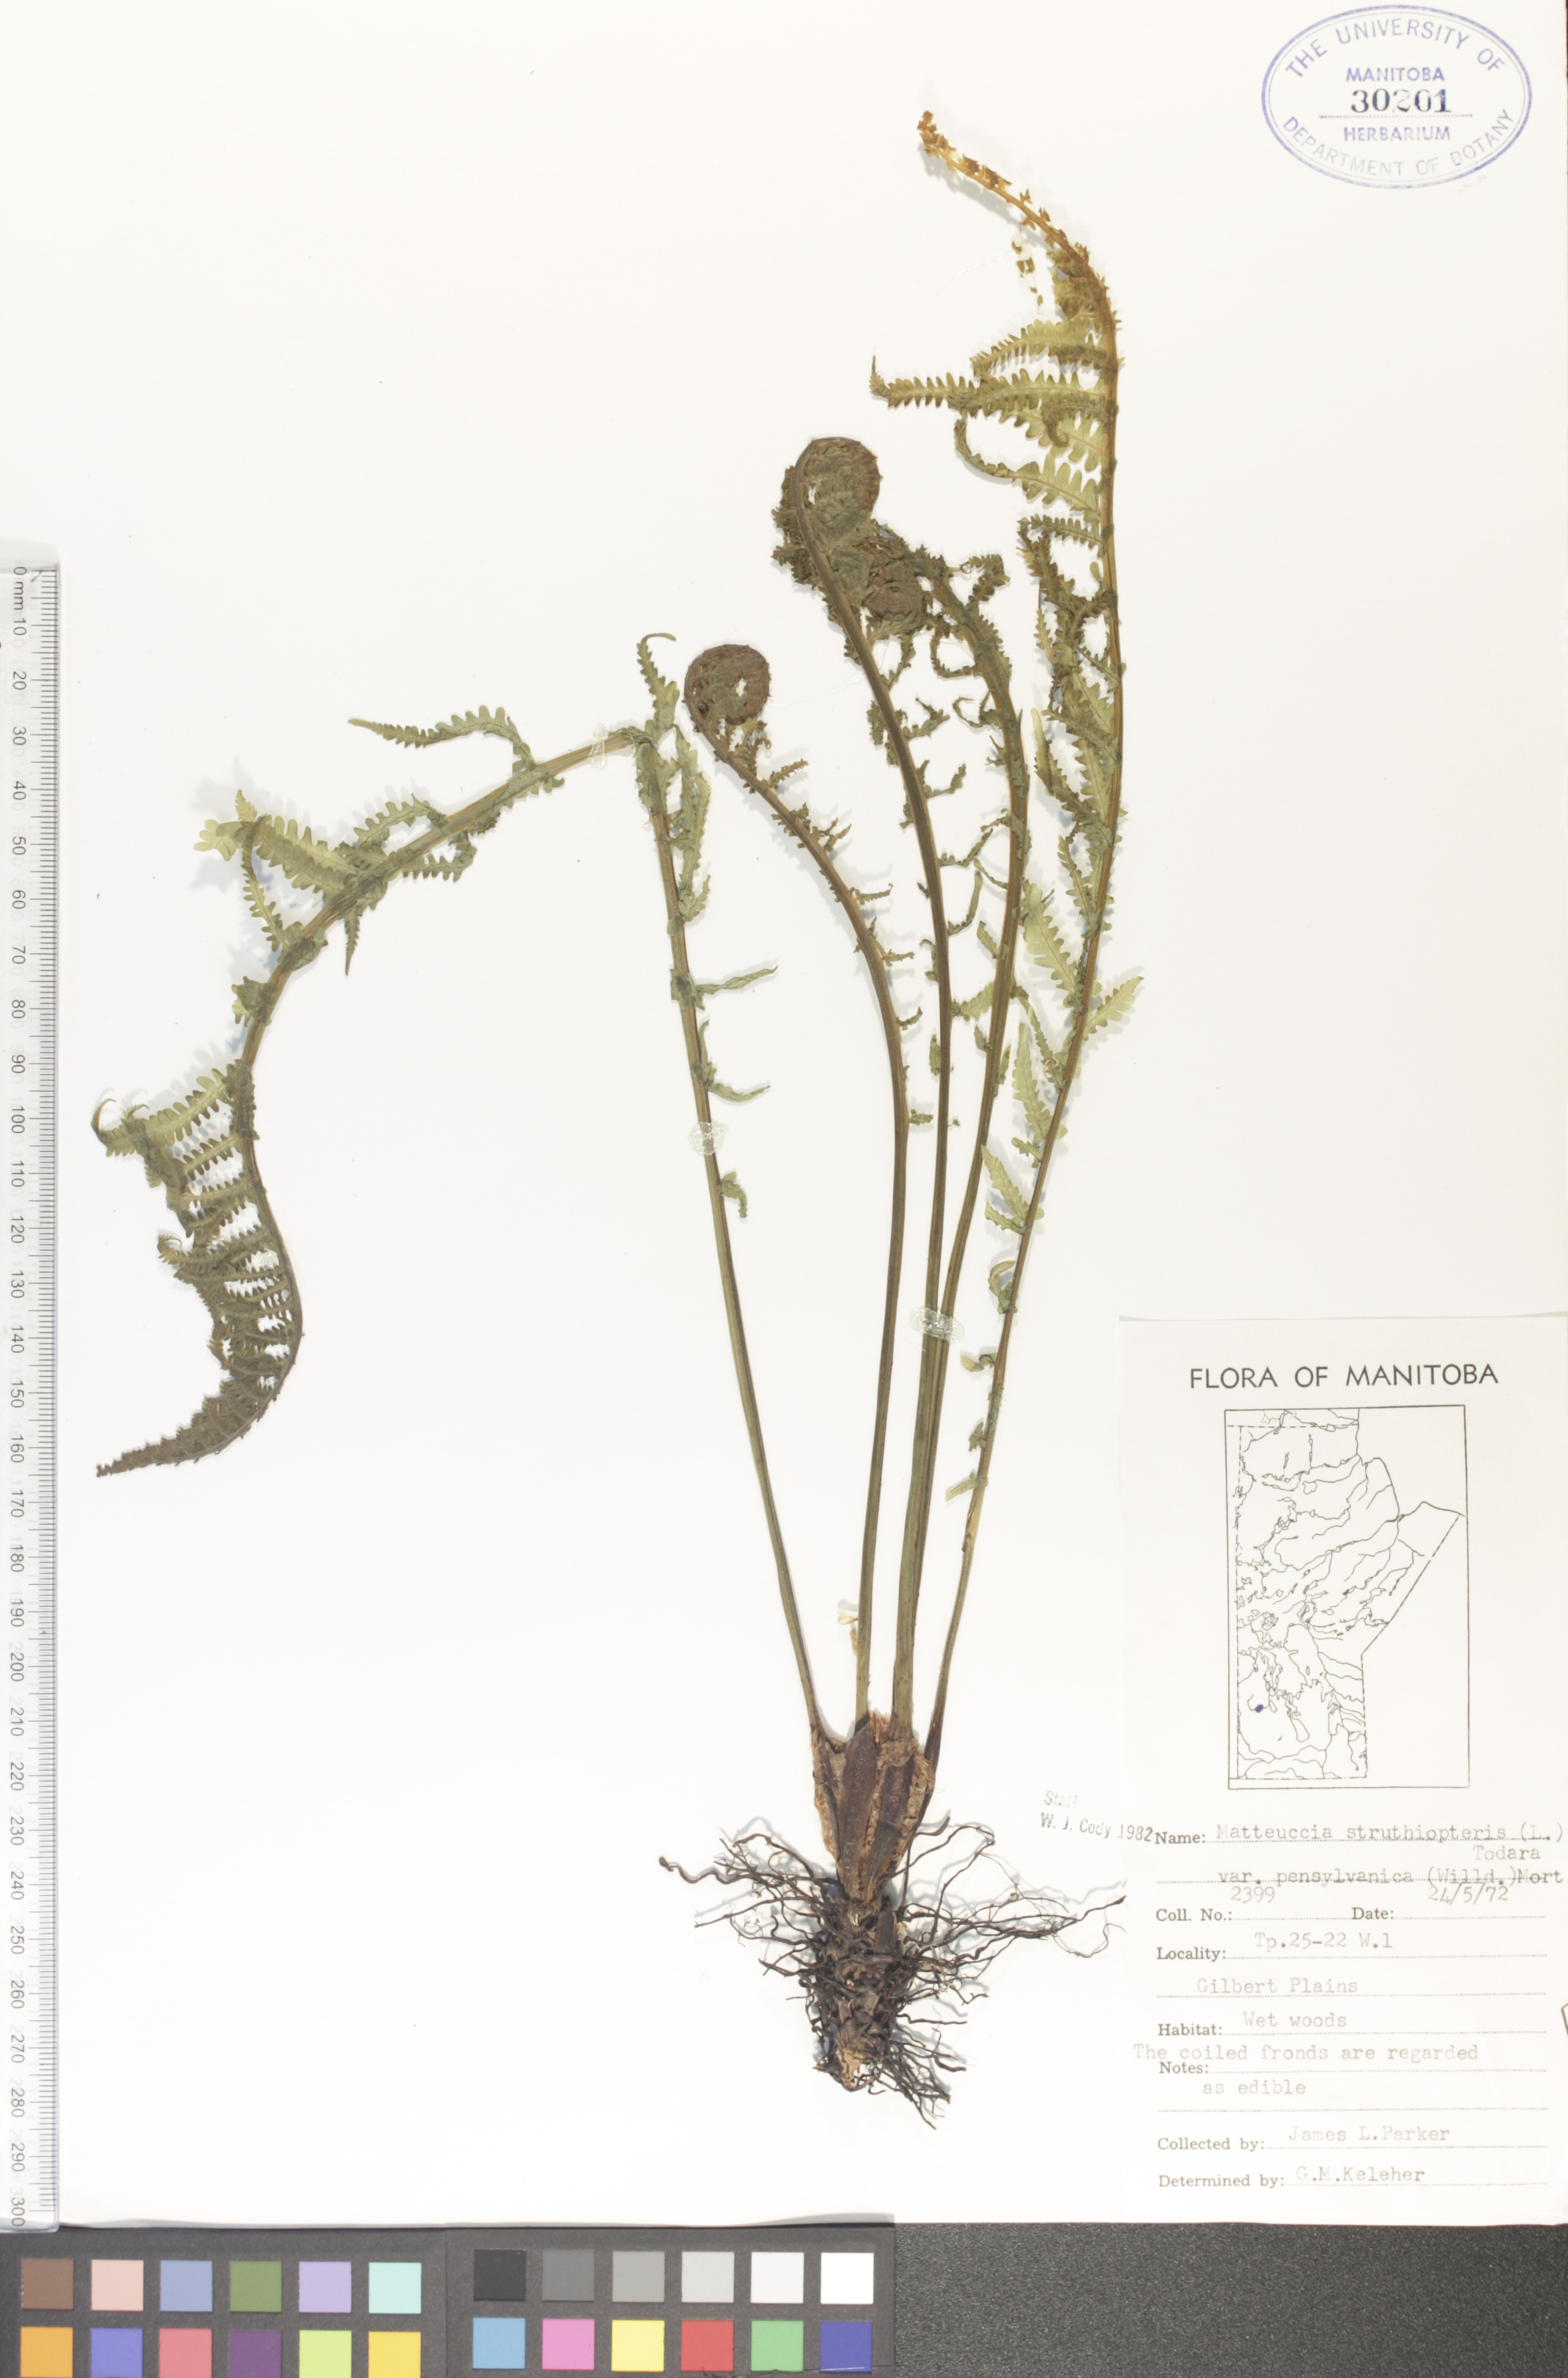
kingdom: Plantae
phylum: Tracheophyta
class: Polypodiopsida
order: Polypodiales
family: Onocleaceae
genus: Matteuccia
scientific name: Matteuccia pensylvanica
